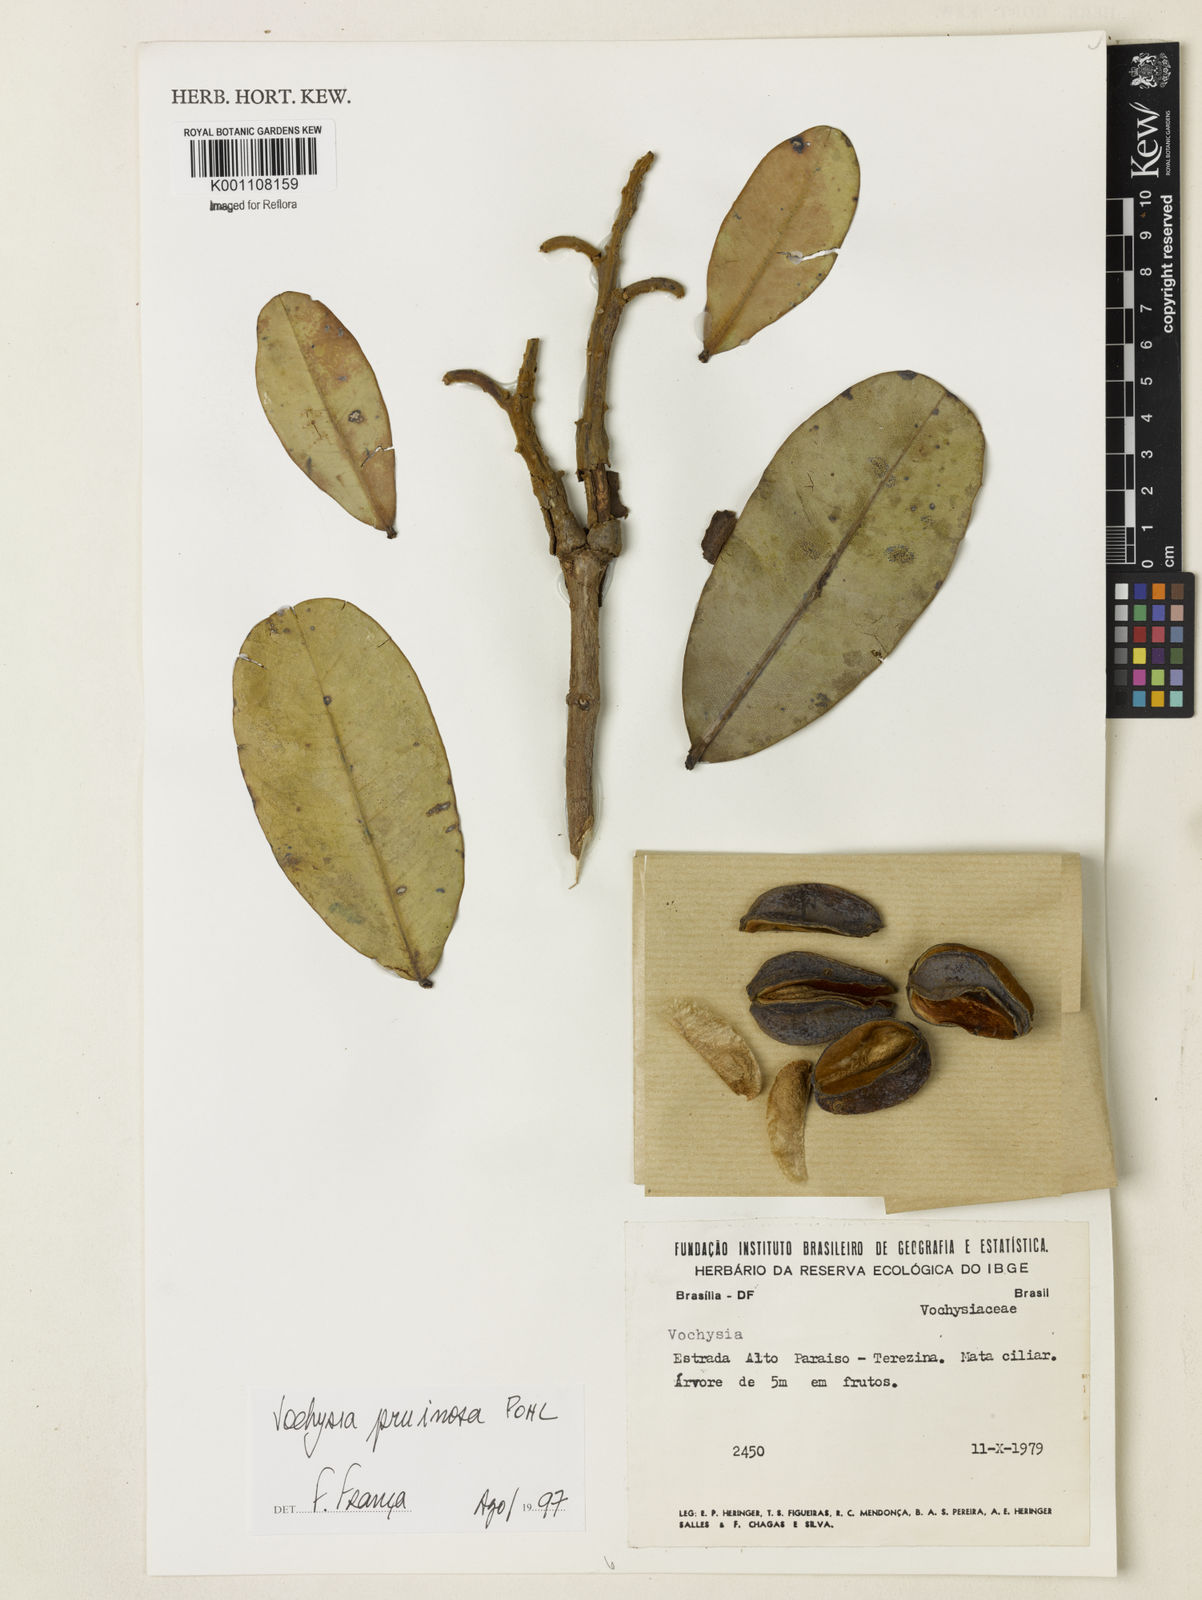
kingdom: Plantae
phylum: Tracheophyta
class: Magnoliopsida
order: Myrtales
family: Vochysiaceae
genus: Vochysia
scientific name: Vochysia pruinosa
